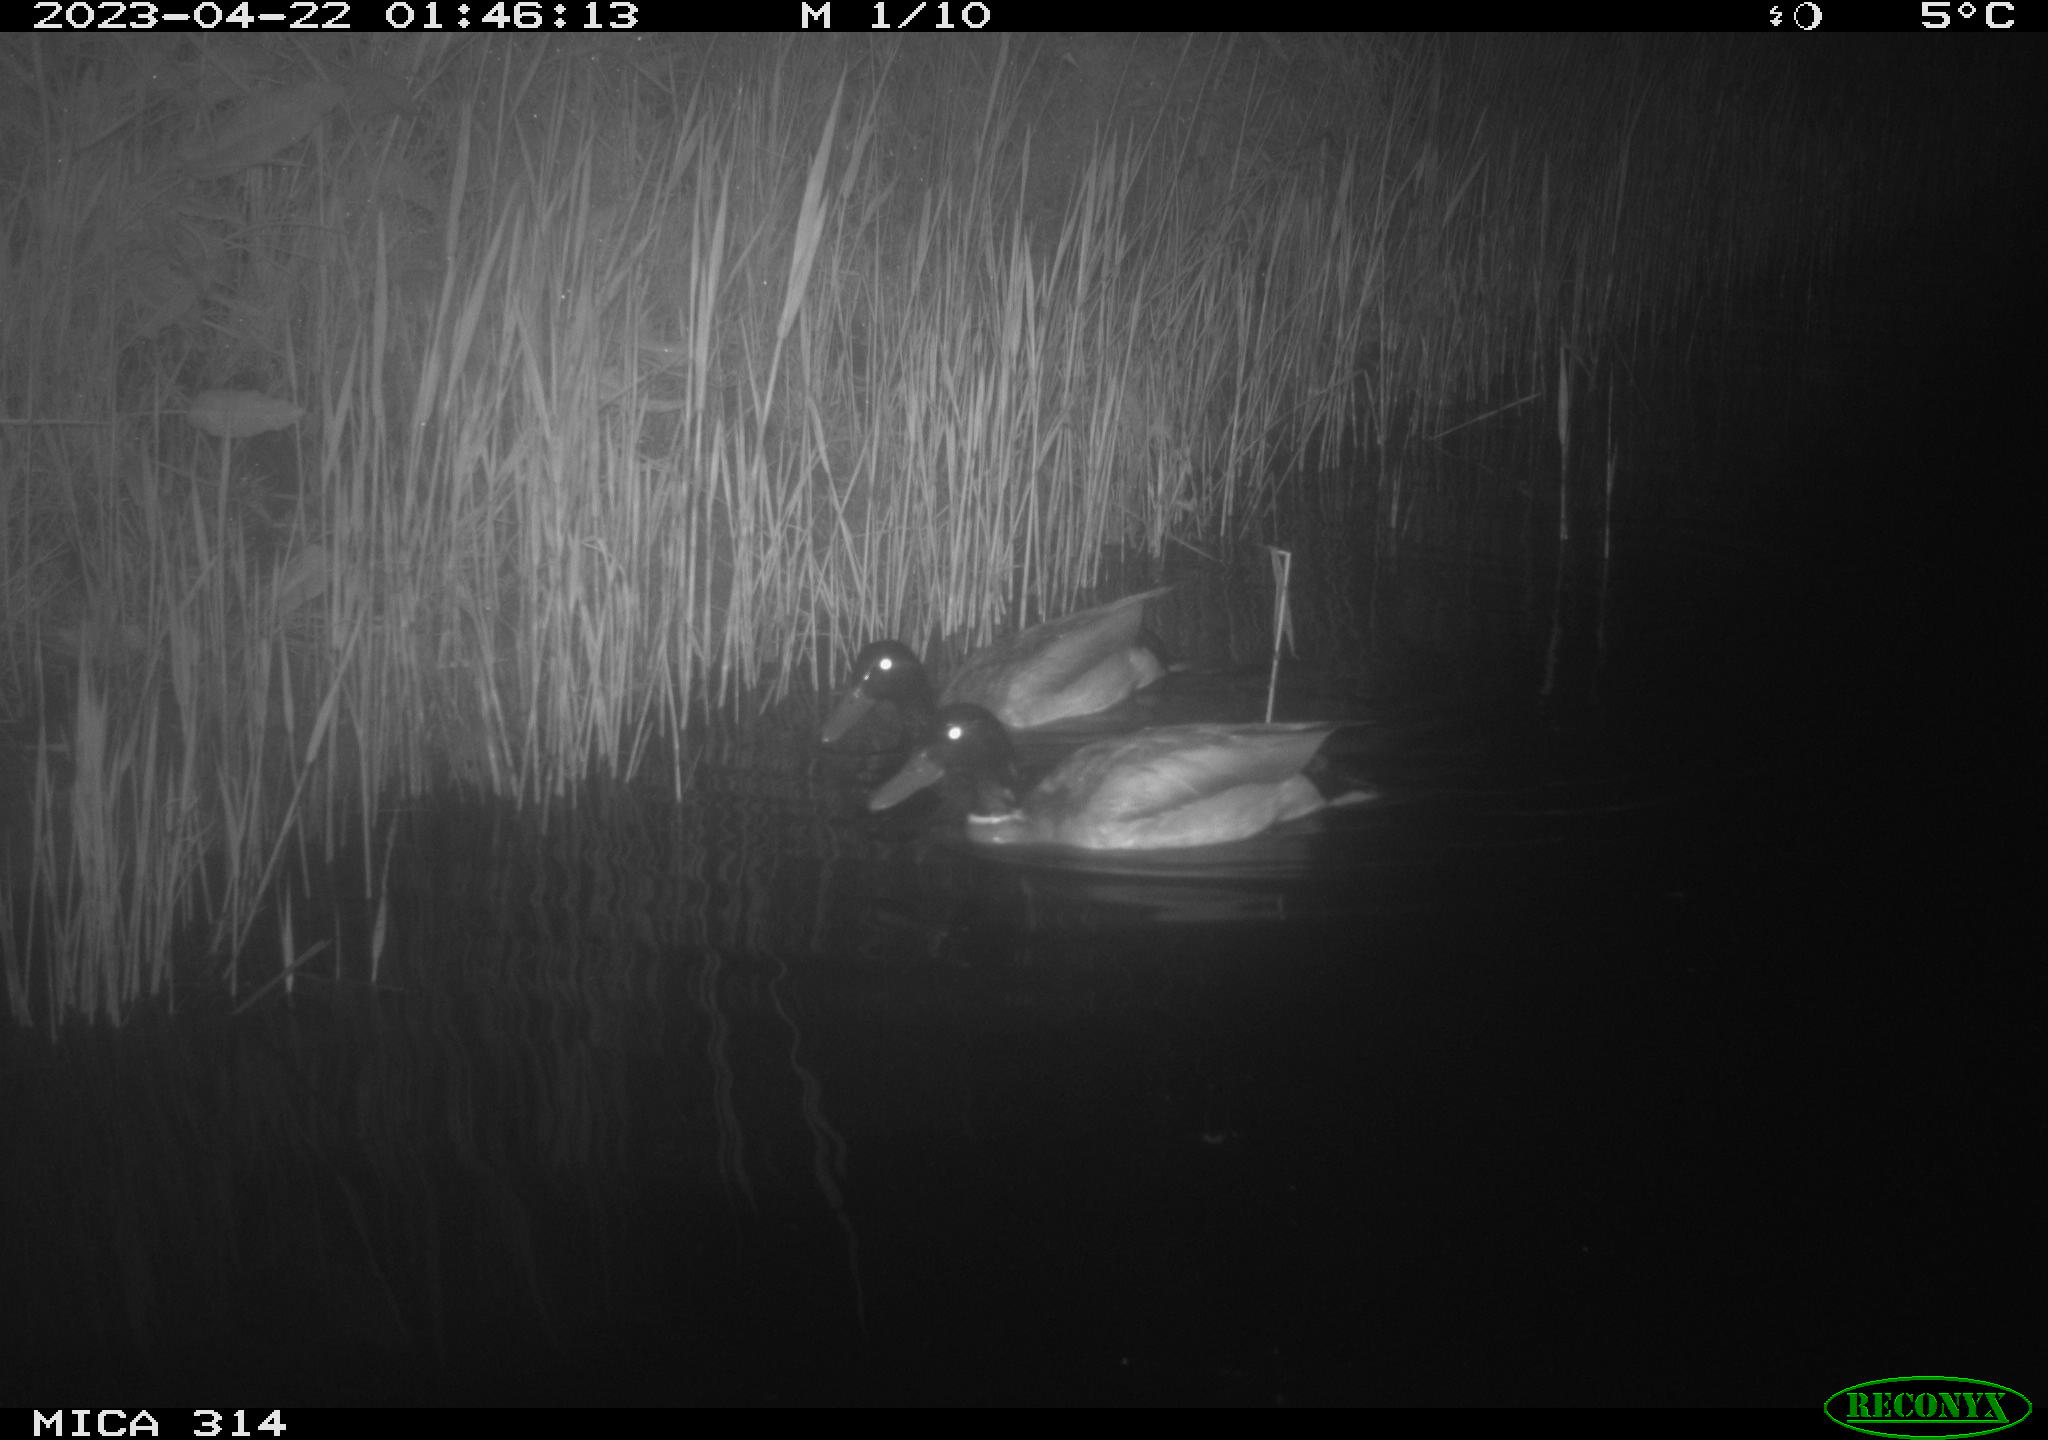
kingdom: Animalia
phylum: Chordata
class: Aves
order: Anseriformes
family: Anatidae
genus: Anas
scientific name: Anas
